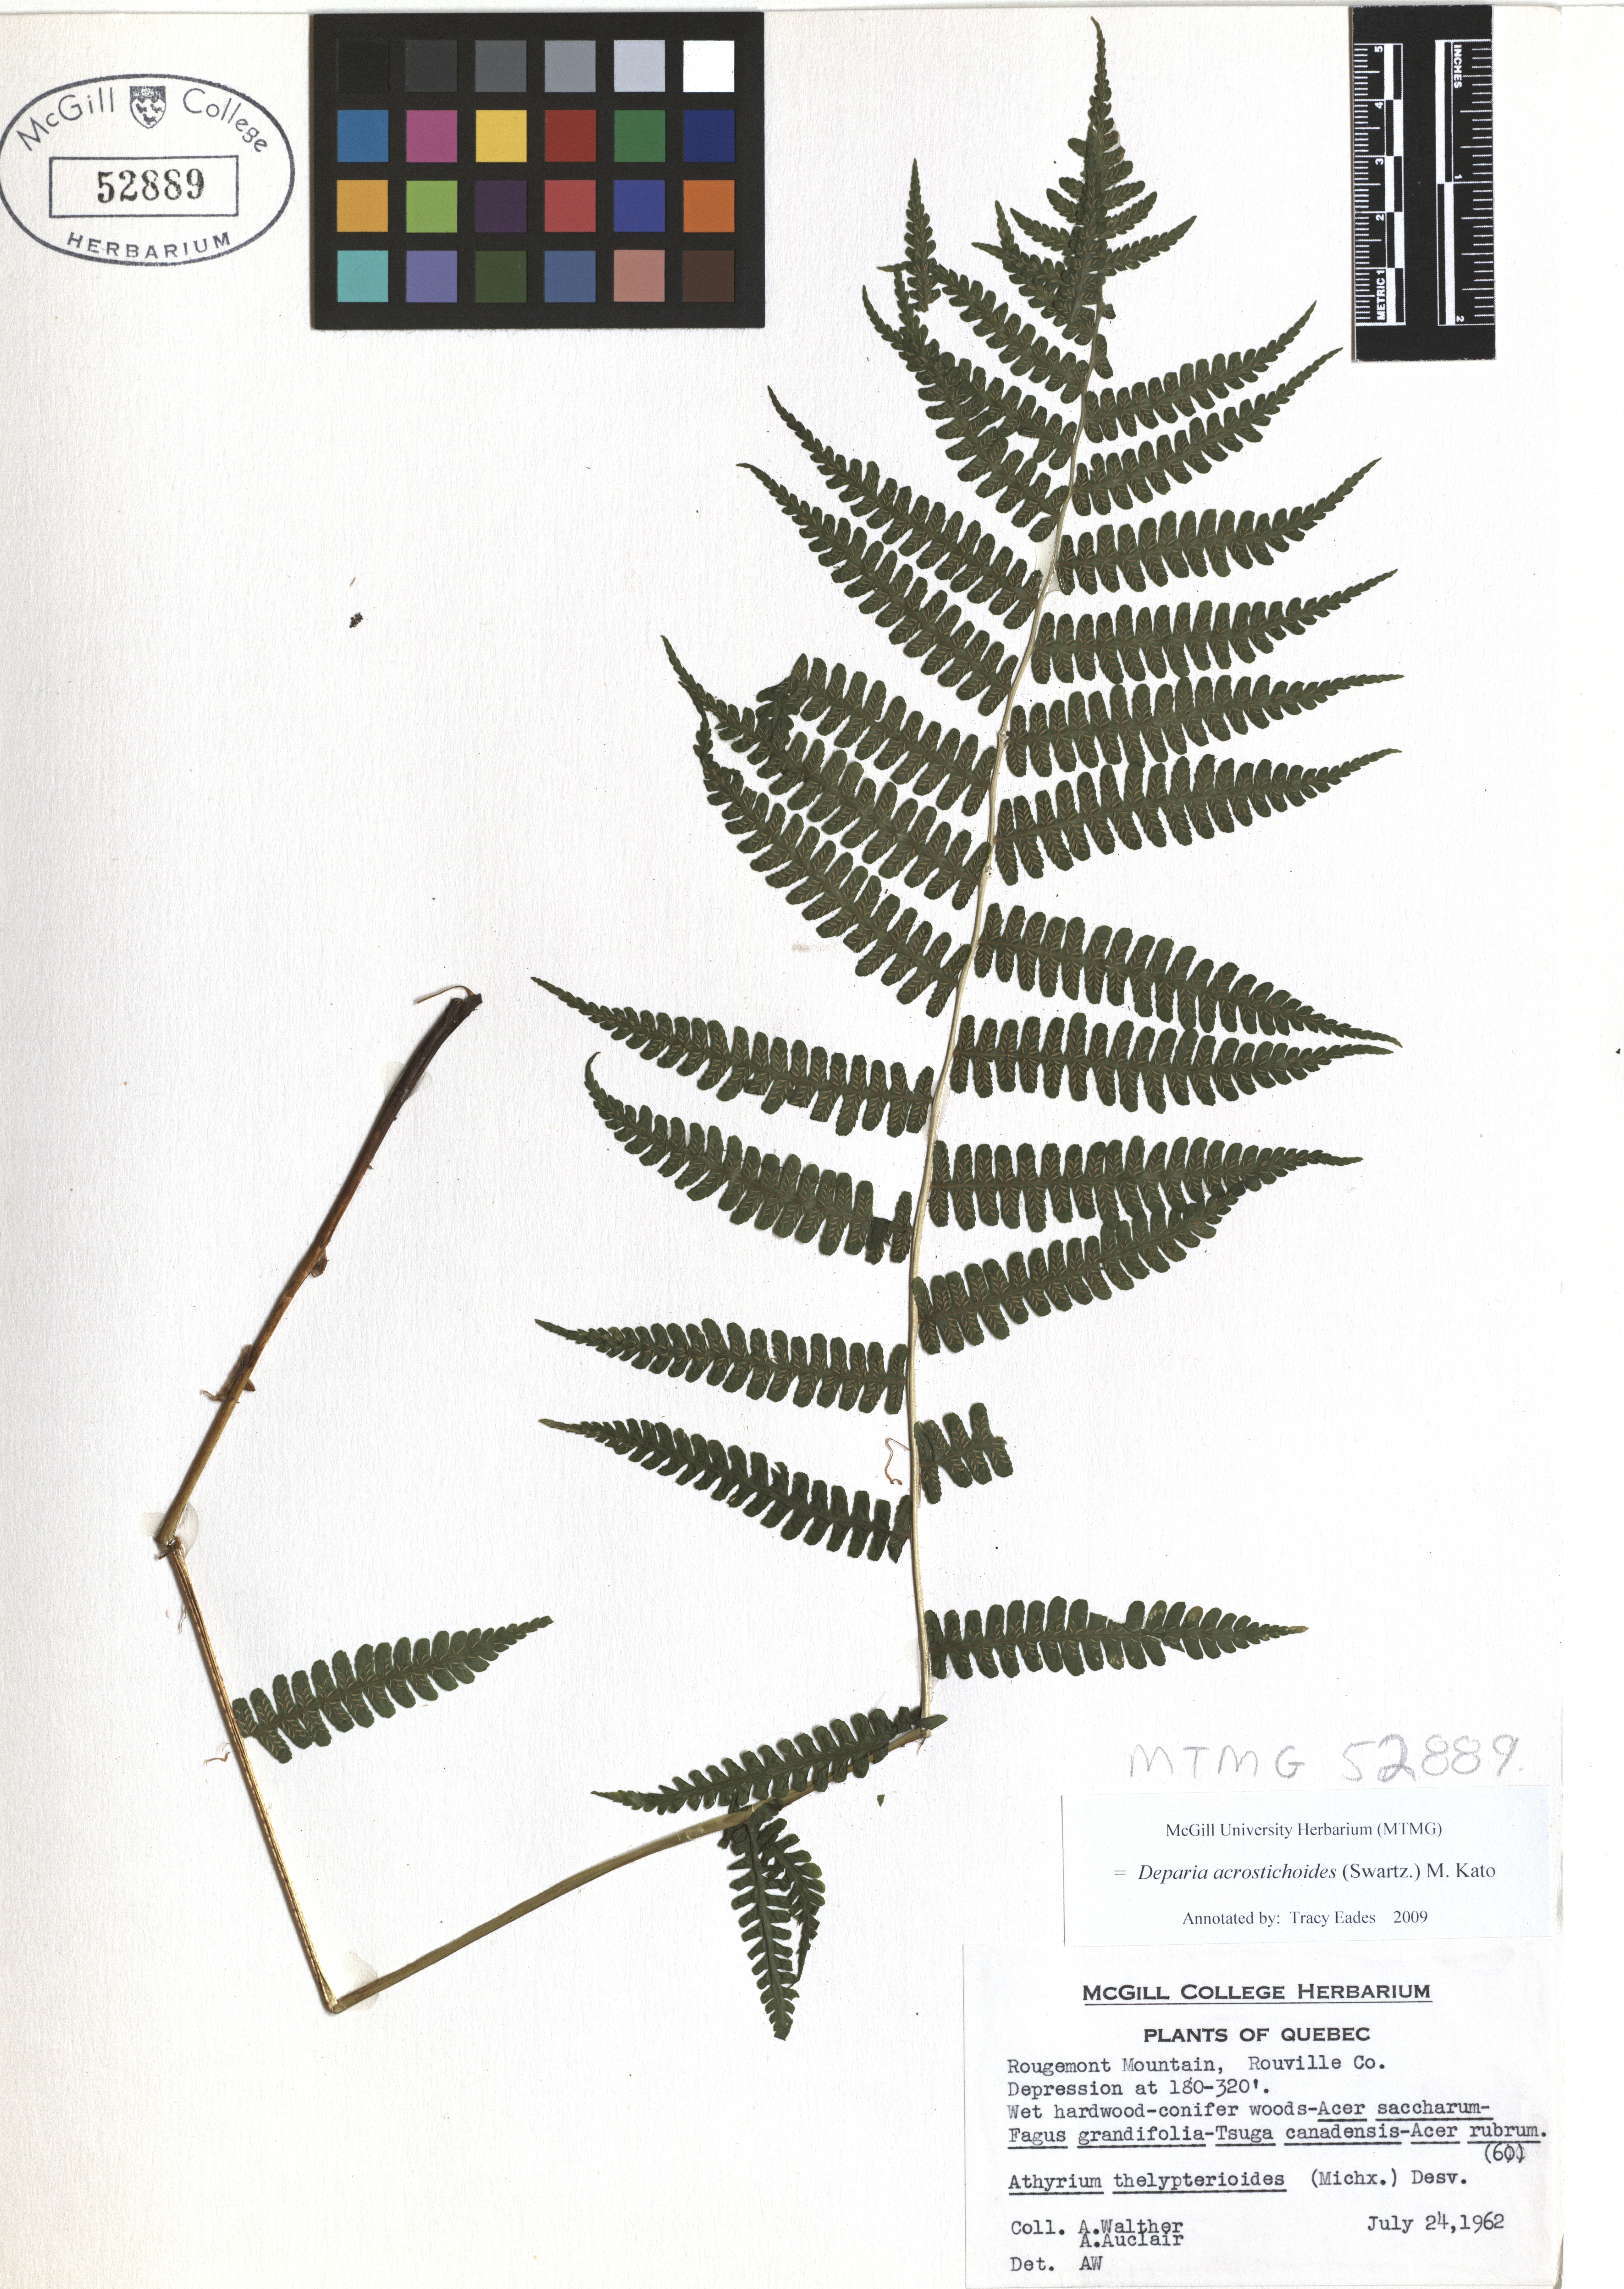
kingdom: Plantae
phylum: Tracheophyta
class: Polypodiopsida
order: Polypodiales
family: Athyriaceae
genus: Deparia
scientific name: Deparia acrostichoides
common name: Silver false spleenwort
